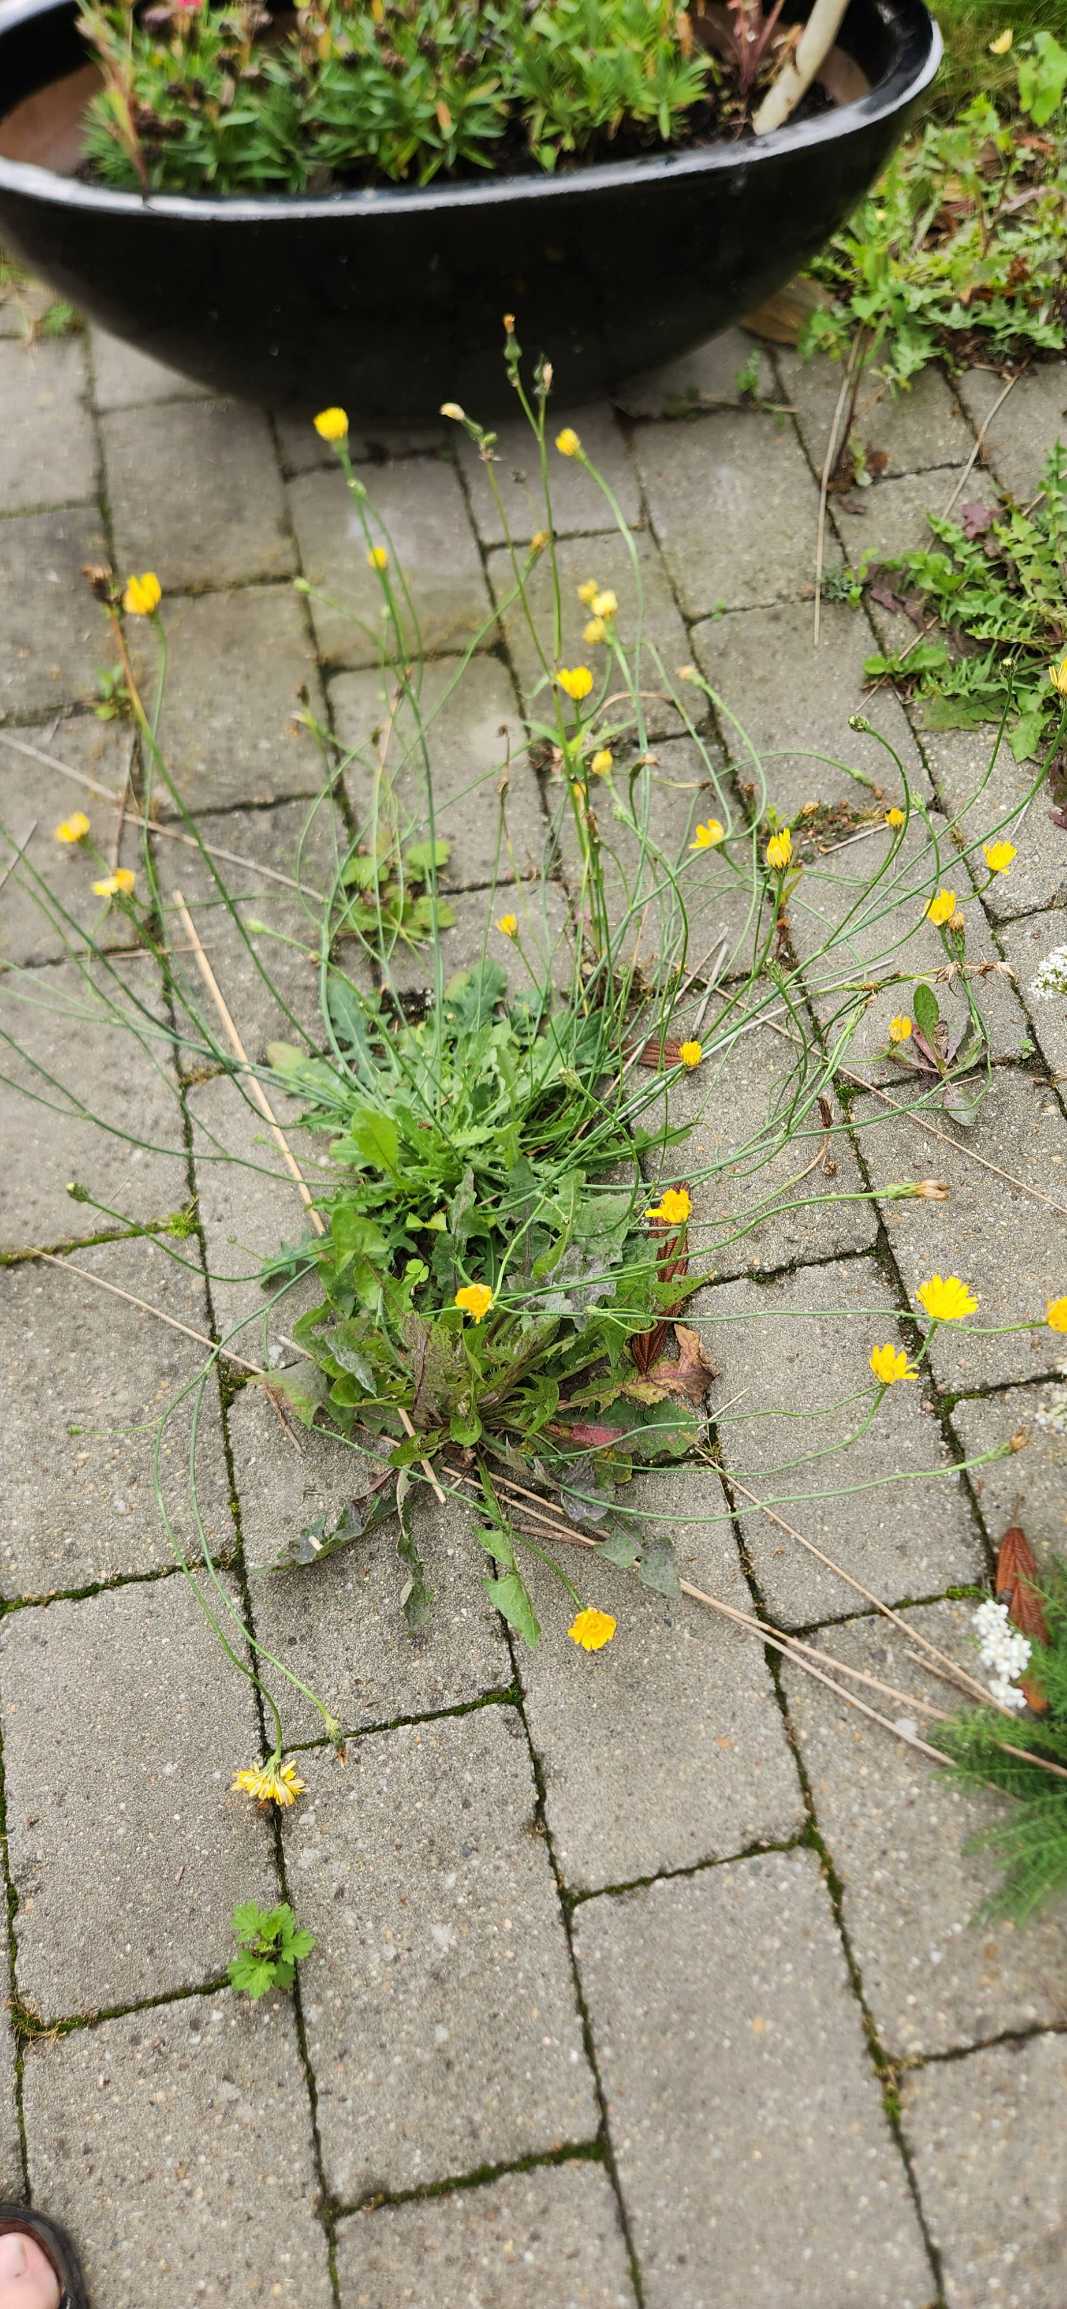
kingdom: Plantae
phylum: Tracheophyta
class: Magnoliopsida
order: Asterales
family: Asteraceae
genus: Hypochaeris
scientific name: Hypochaeris radicata
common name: Almindelig kongepen
